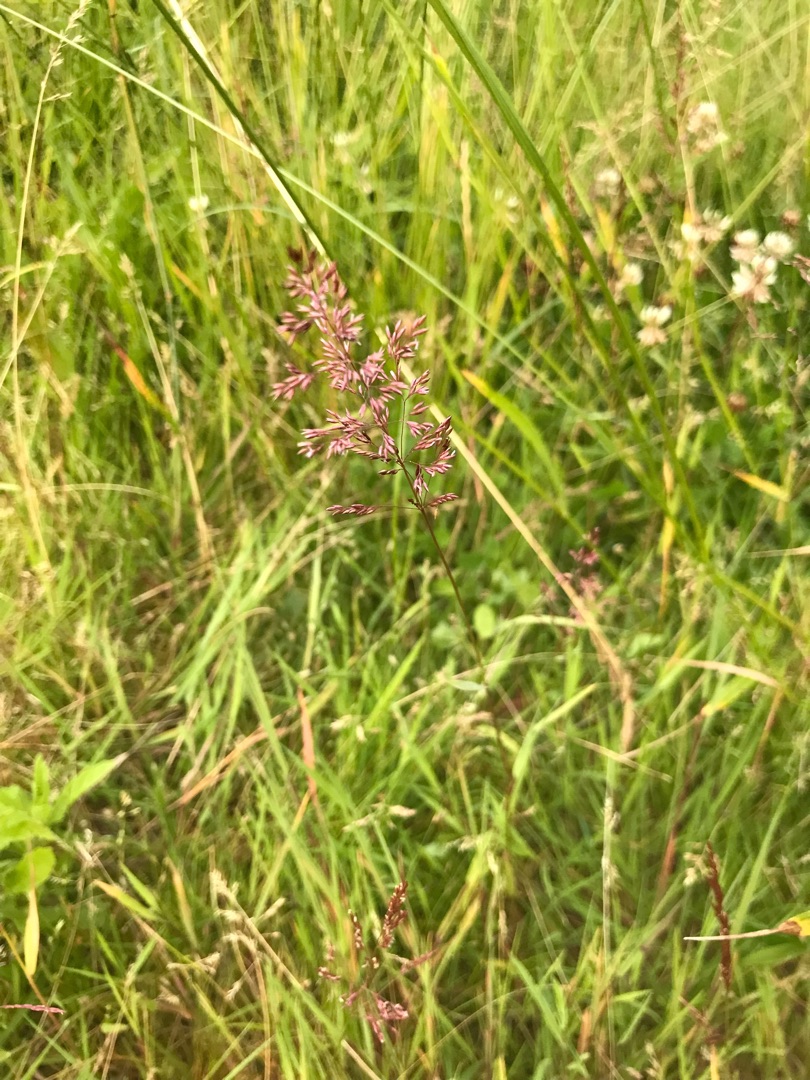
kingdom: Plantae
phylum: Tracheophyta
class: Liliopsida
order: Poales
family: Poaceae
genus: Agrostis
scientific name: Agrostis gigantea
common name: Stortoppet hvene
